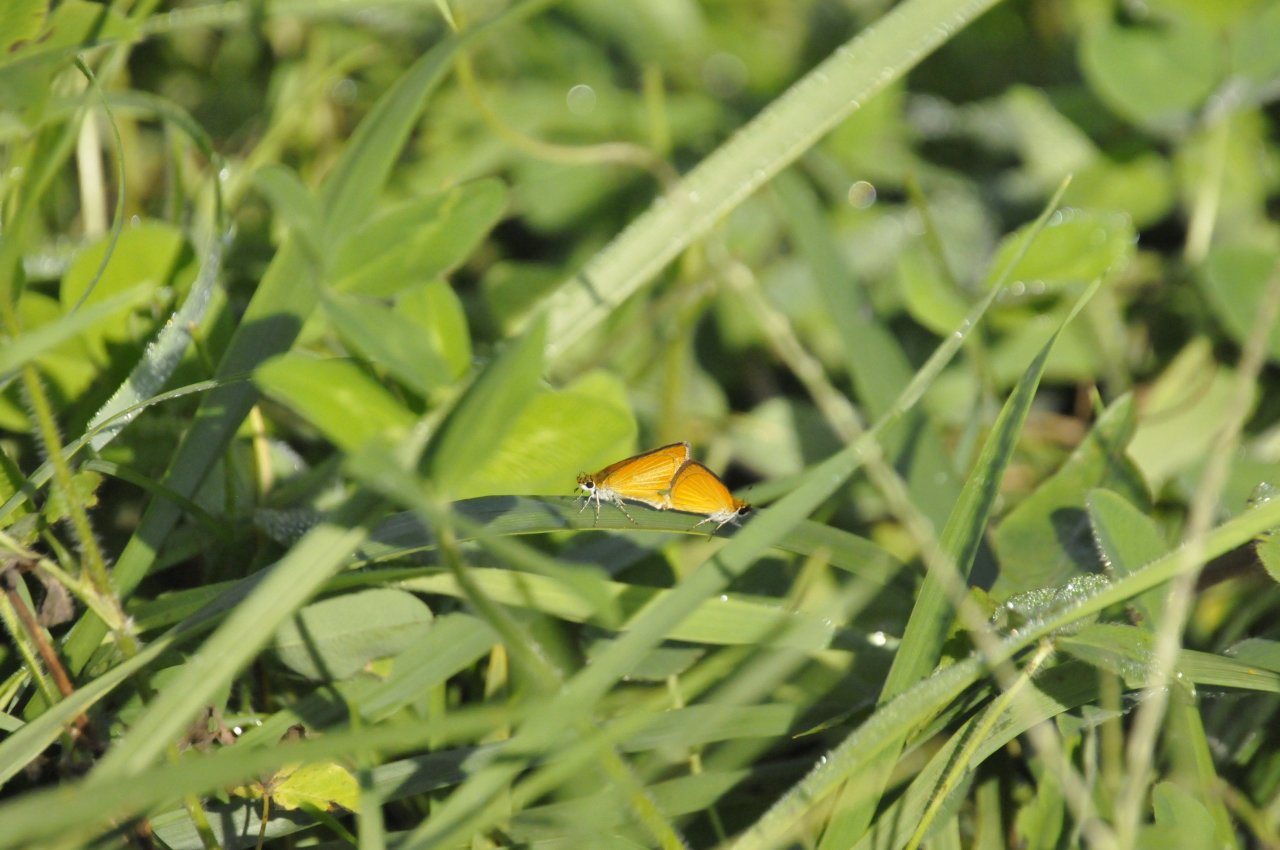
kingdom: Animalia
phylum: Arthropoda
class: Insecta
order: Lepidoptera
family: Hesperiidae
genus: Ancyloxypha
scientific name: Ancyloxypha numitor
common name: Least Skipper
